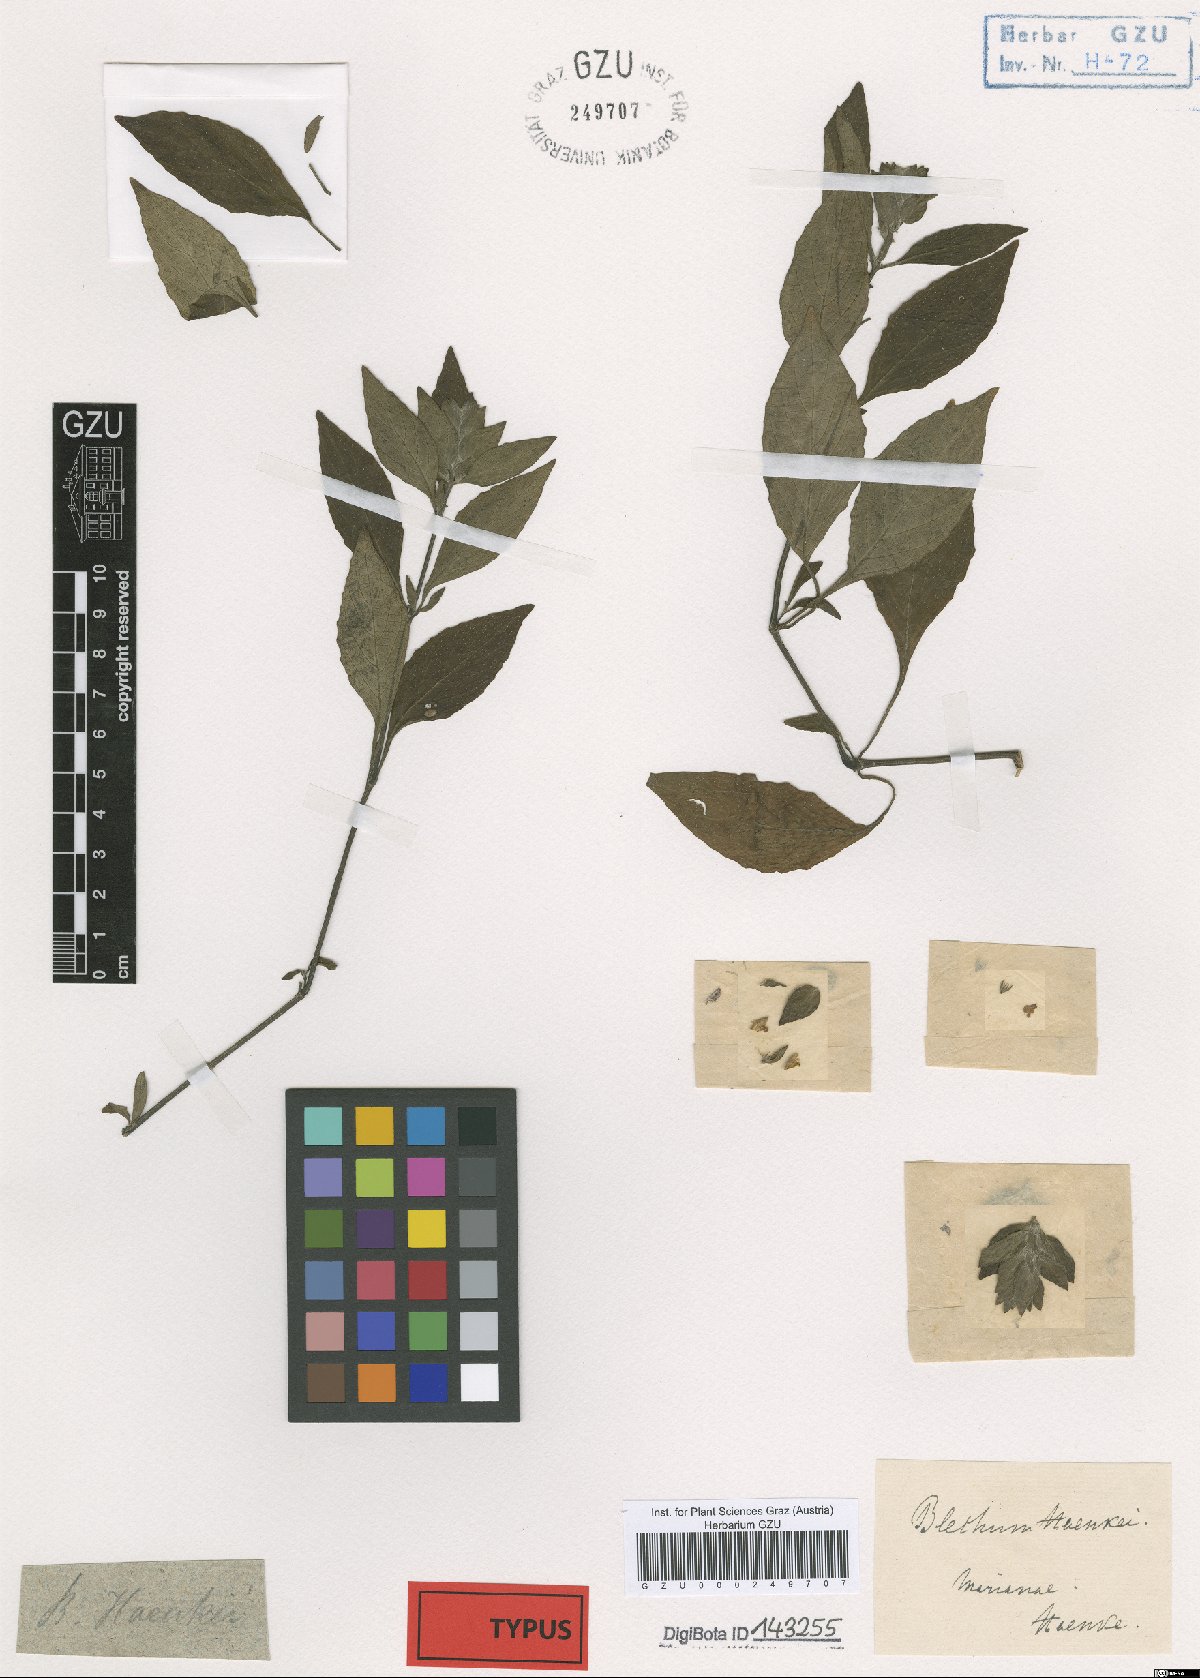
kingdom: Plantae
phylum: Tracheophyta
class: Magnoliopsida
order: Lamiales
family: Acanthaceae
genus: Ruellia
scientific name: Ruellia blechum
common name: Browne's blechum
